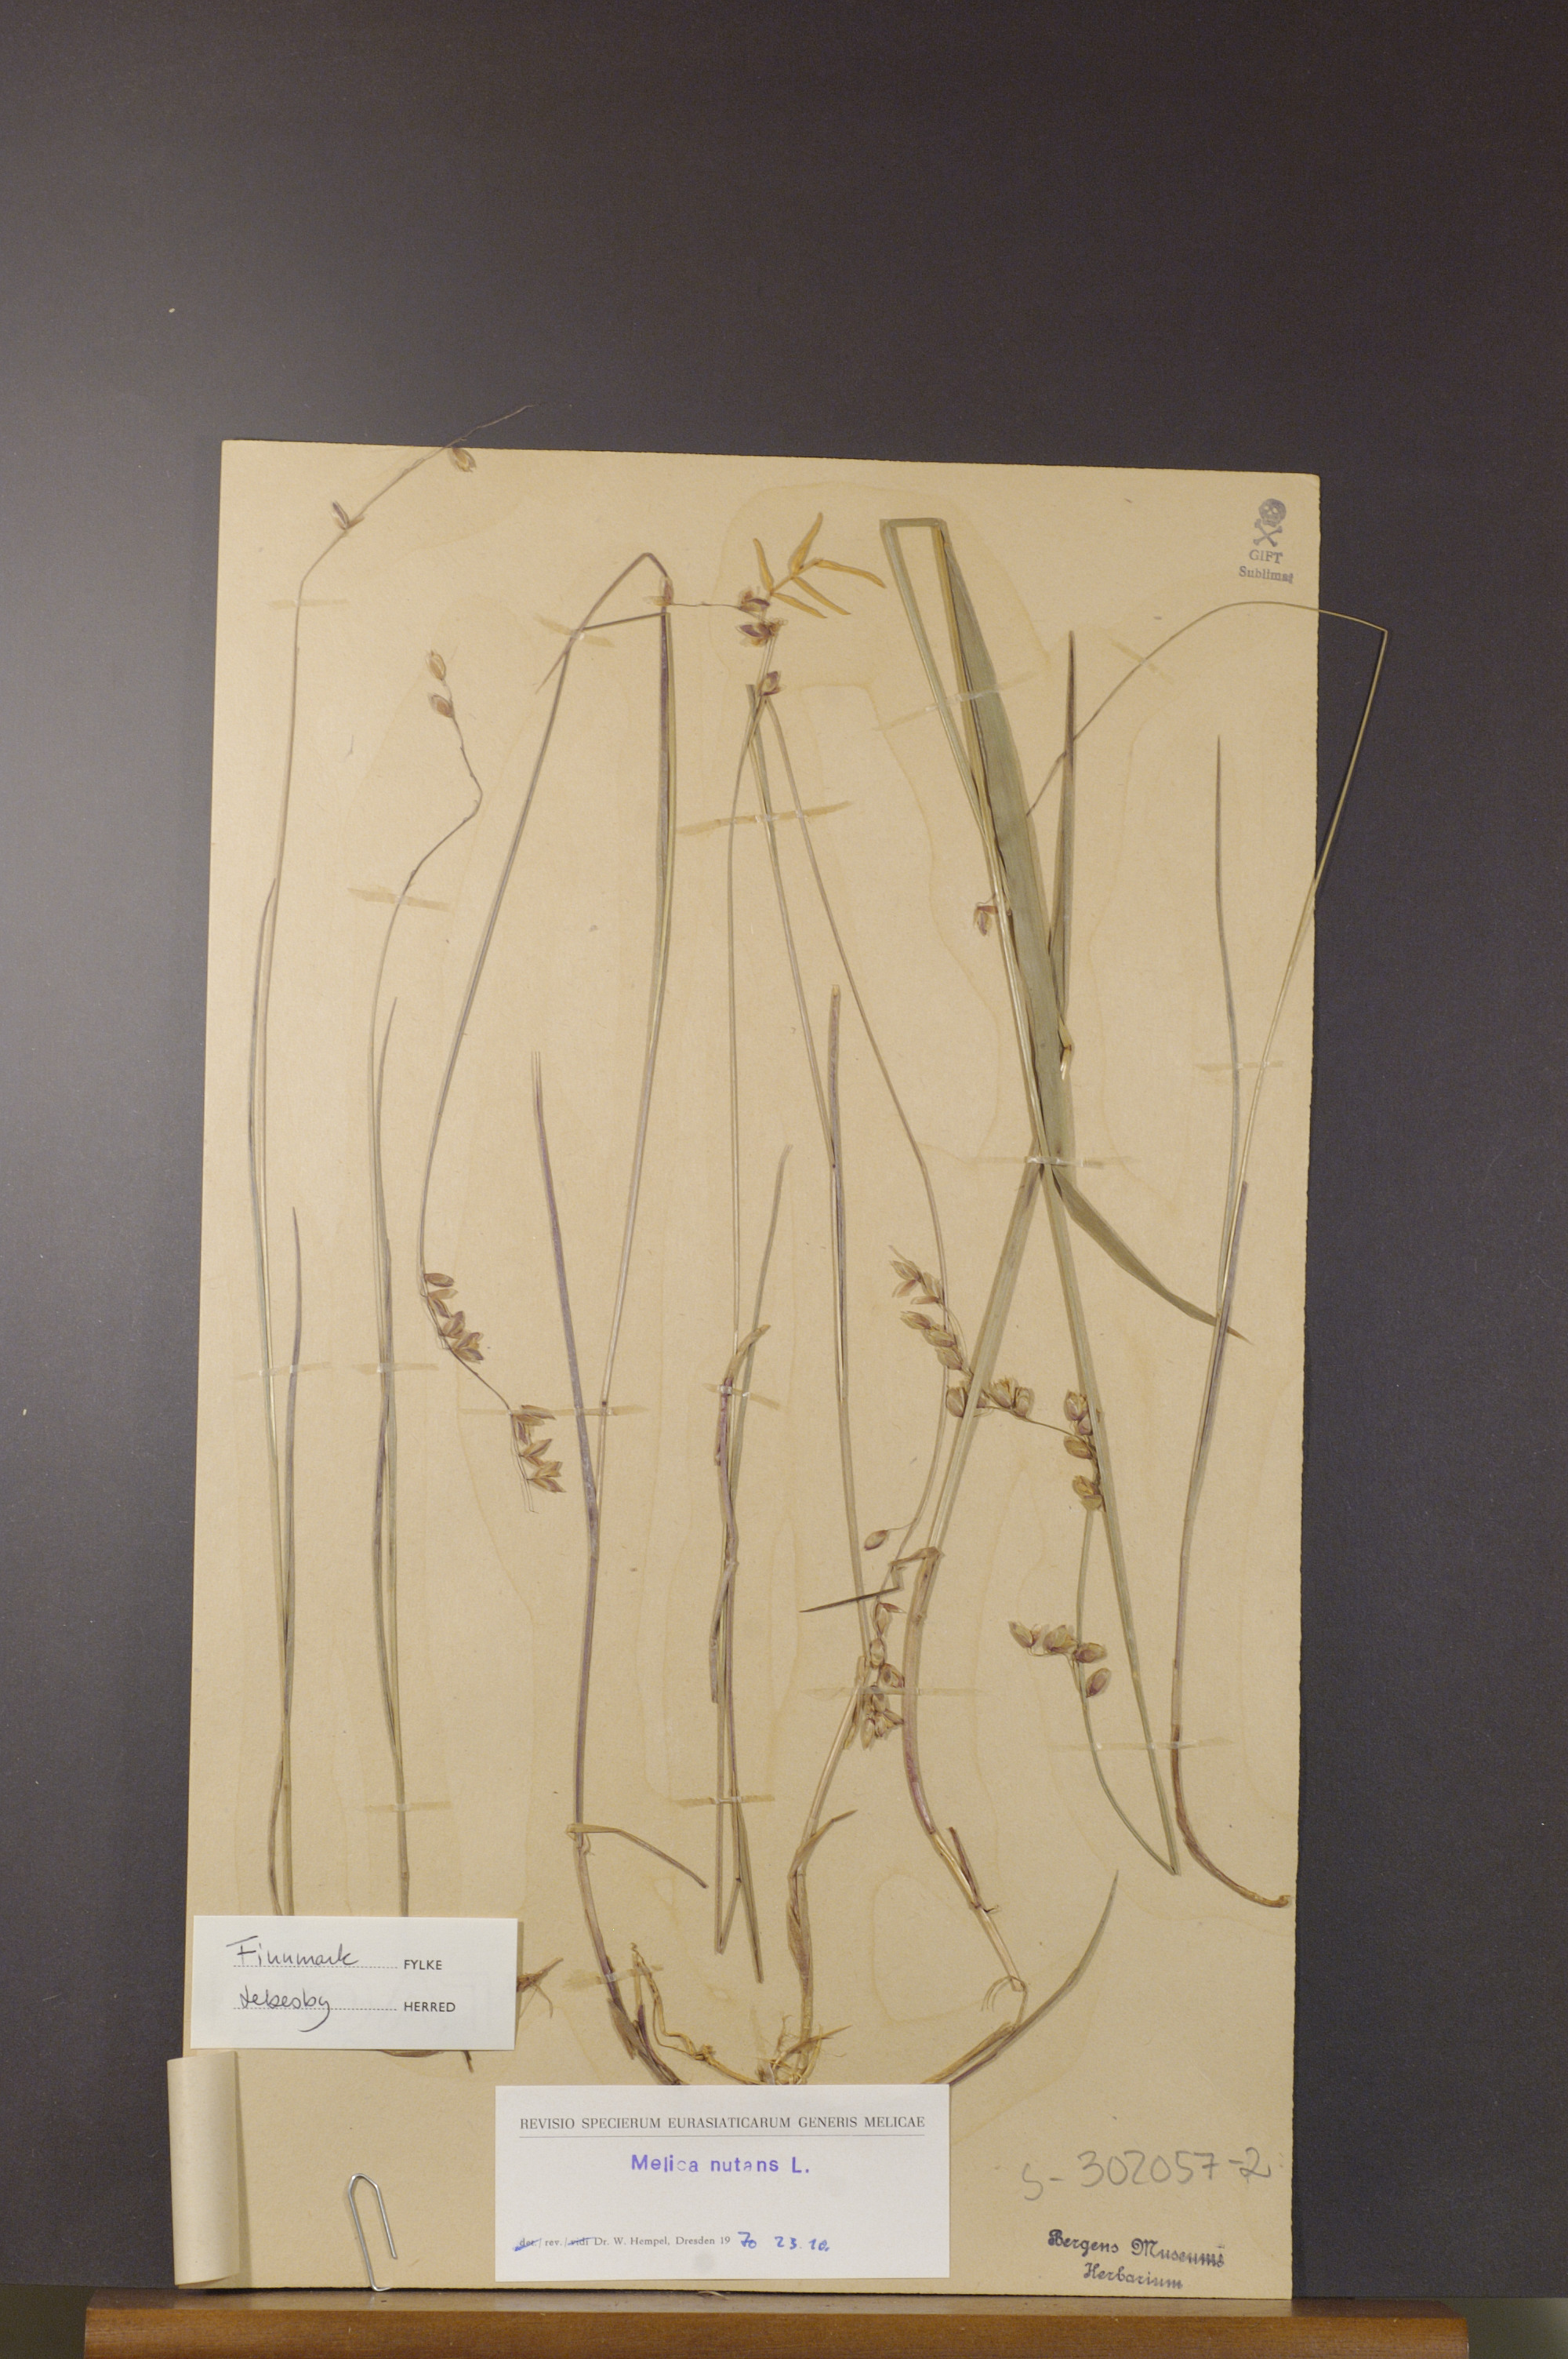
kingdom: Plantae
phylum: Tracheophyta
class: Liliopsida
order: Poales
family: Poaceae
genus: Melica
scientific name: Melica nutans
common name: Mountain melick
